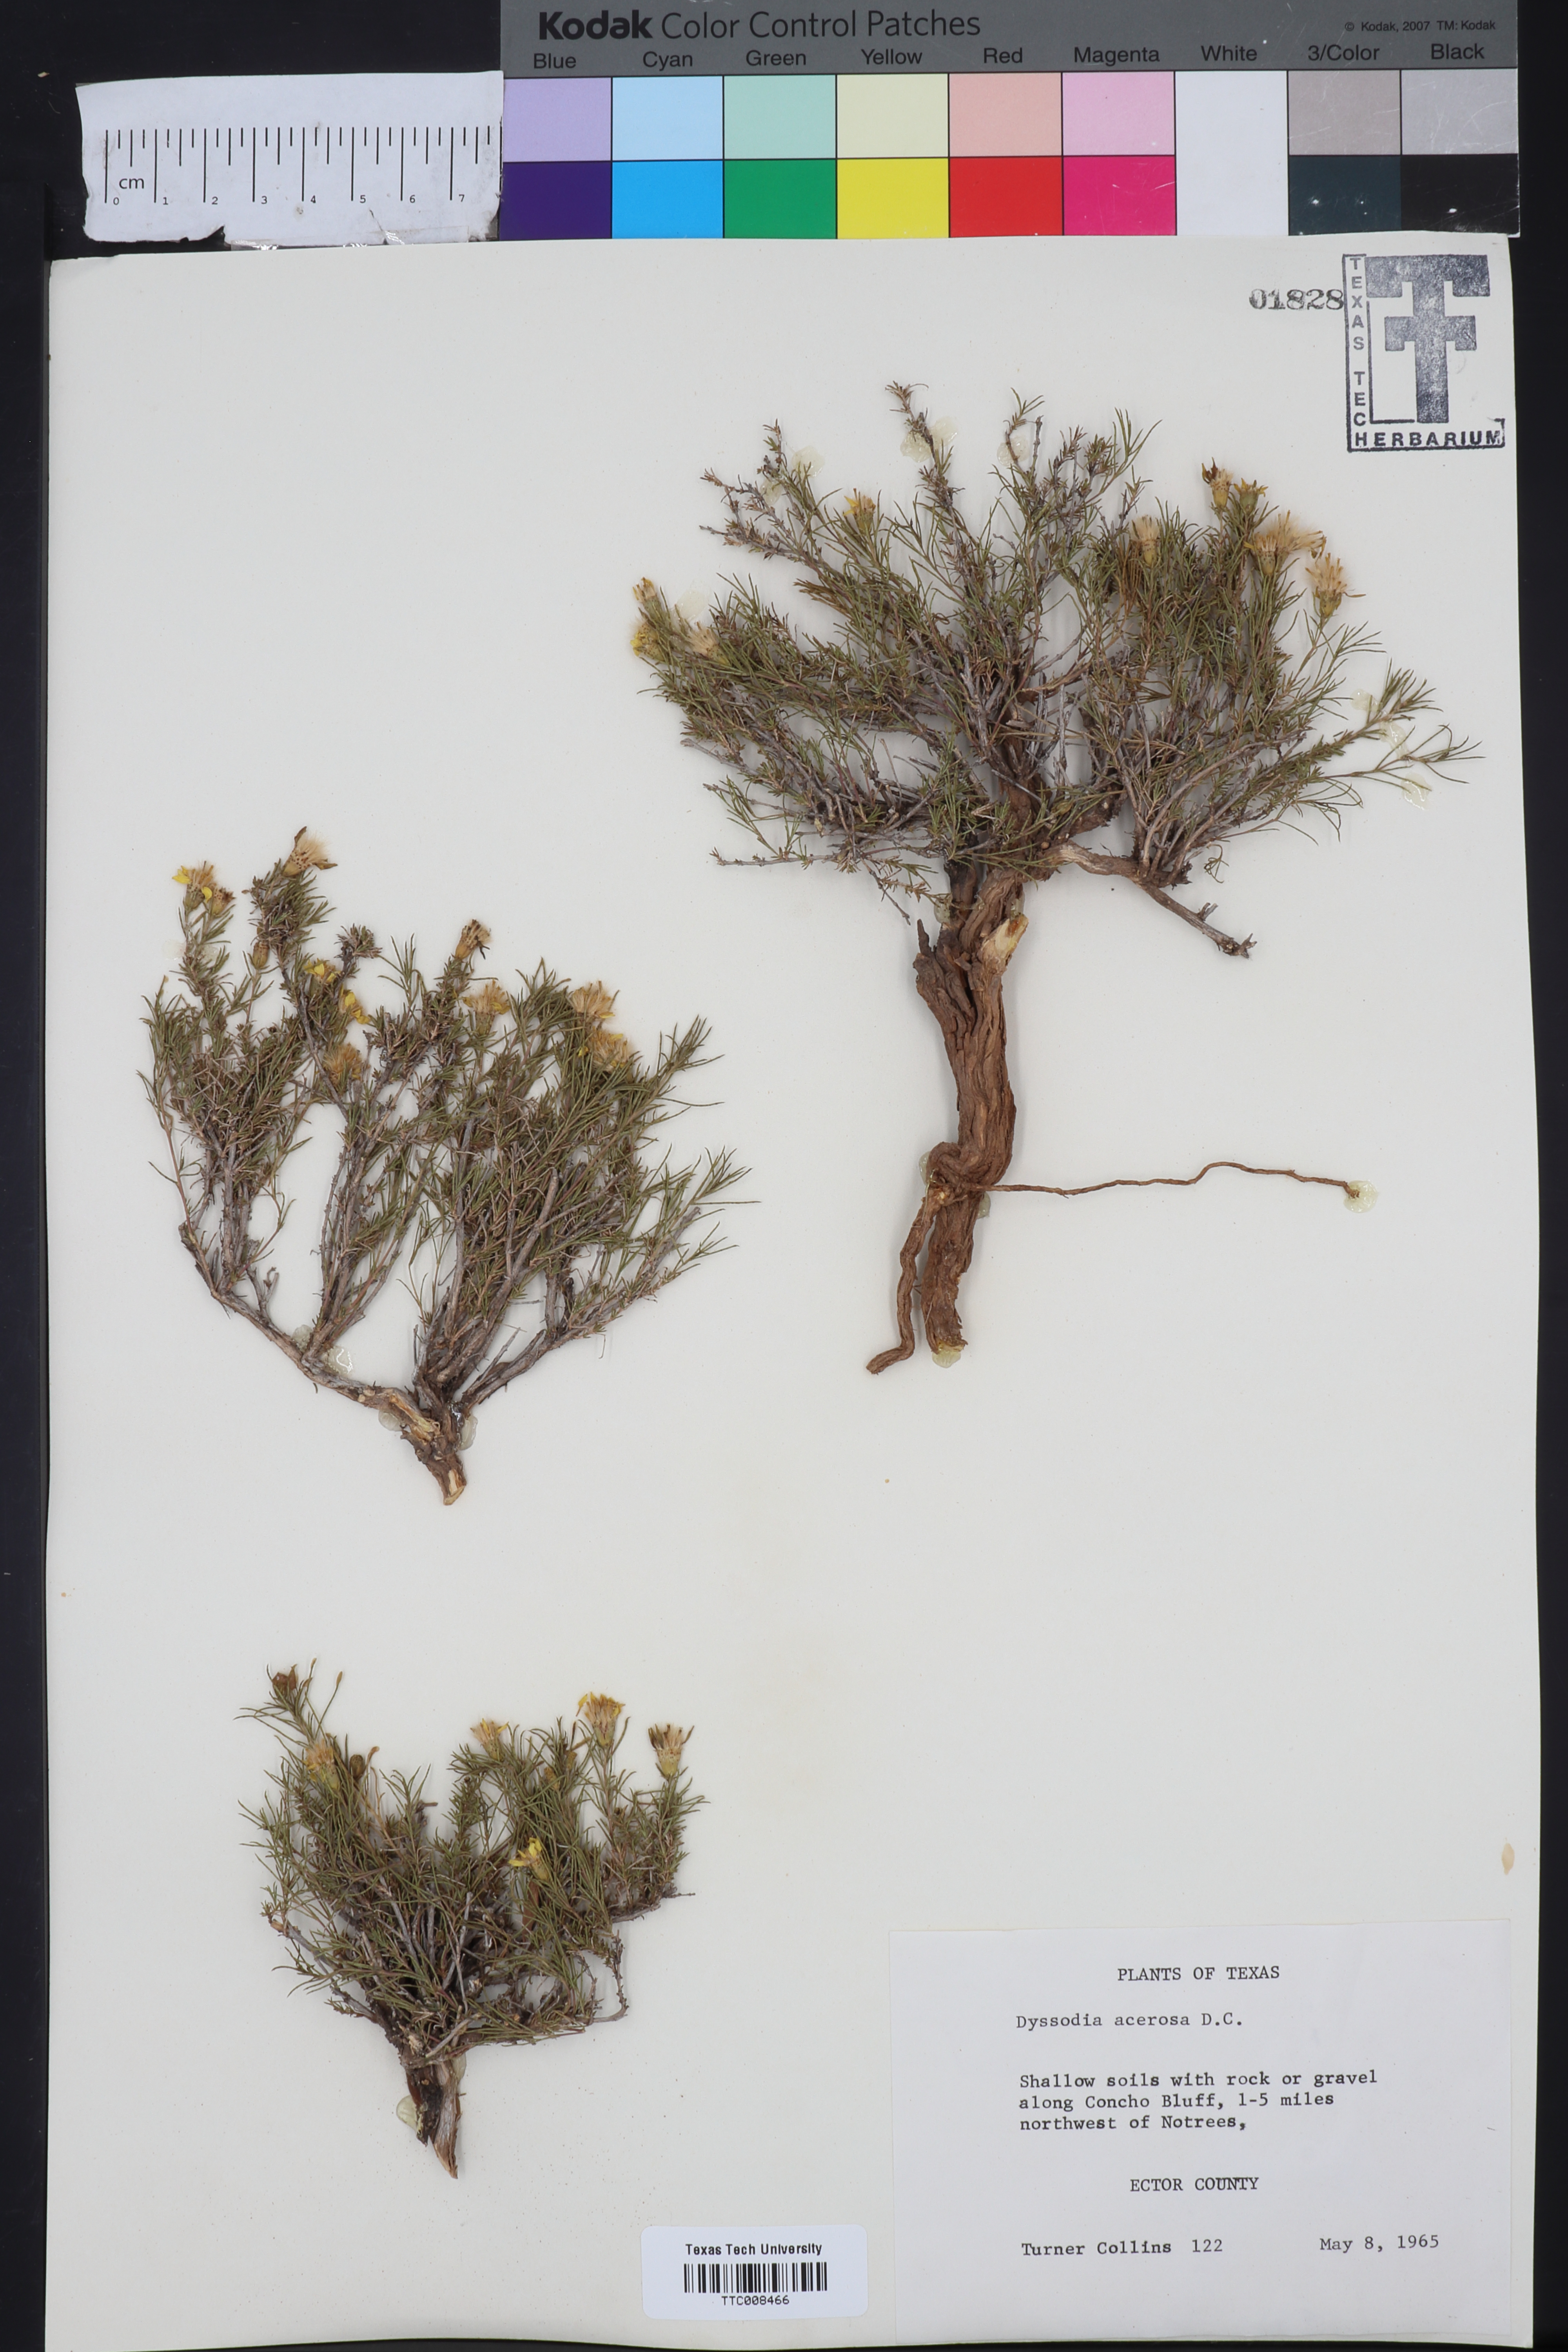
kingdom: Plantae
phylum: Tracheophyta
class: Magnoliopsida
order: Asterales
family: Asteraceae
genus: Thymophylla
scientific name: Thymophylla acerosa
